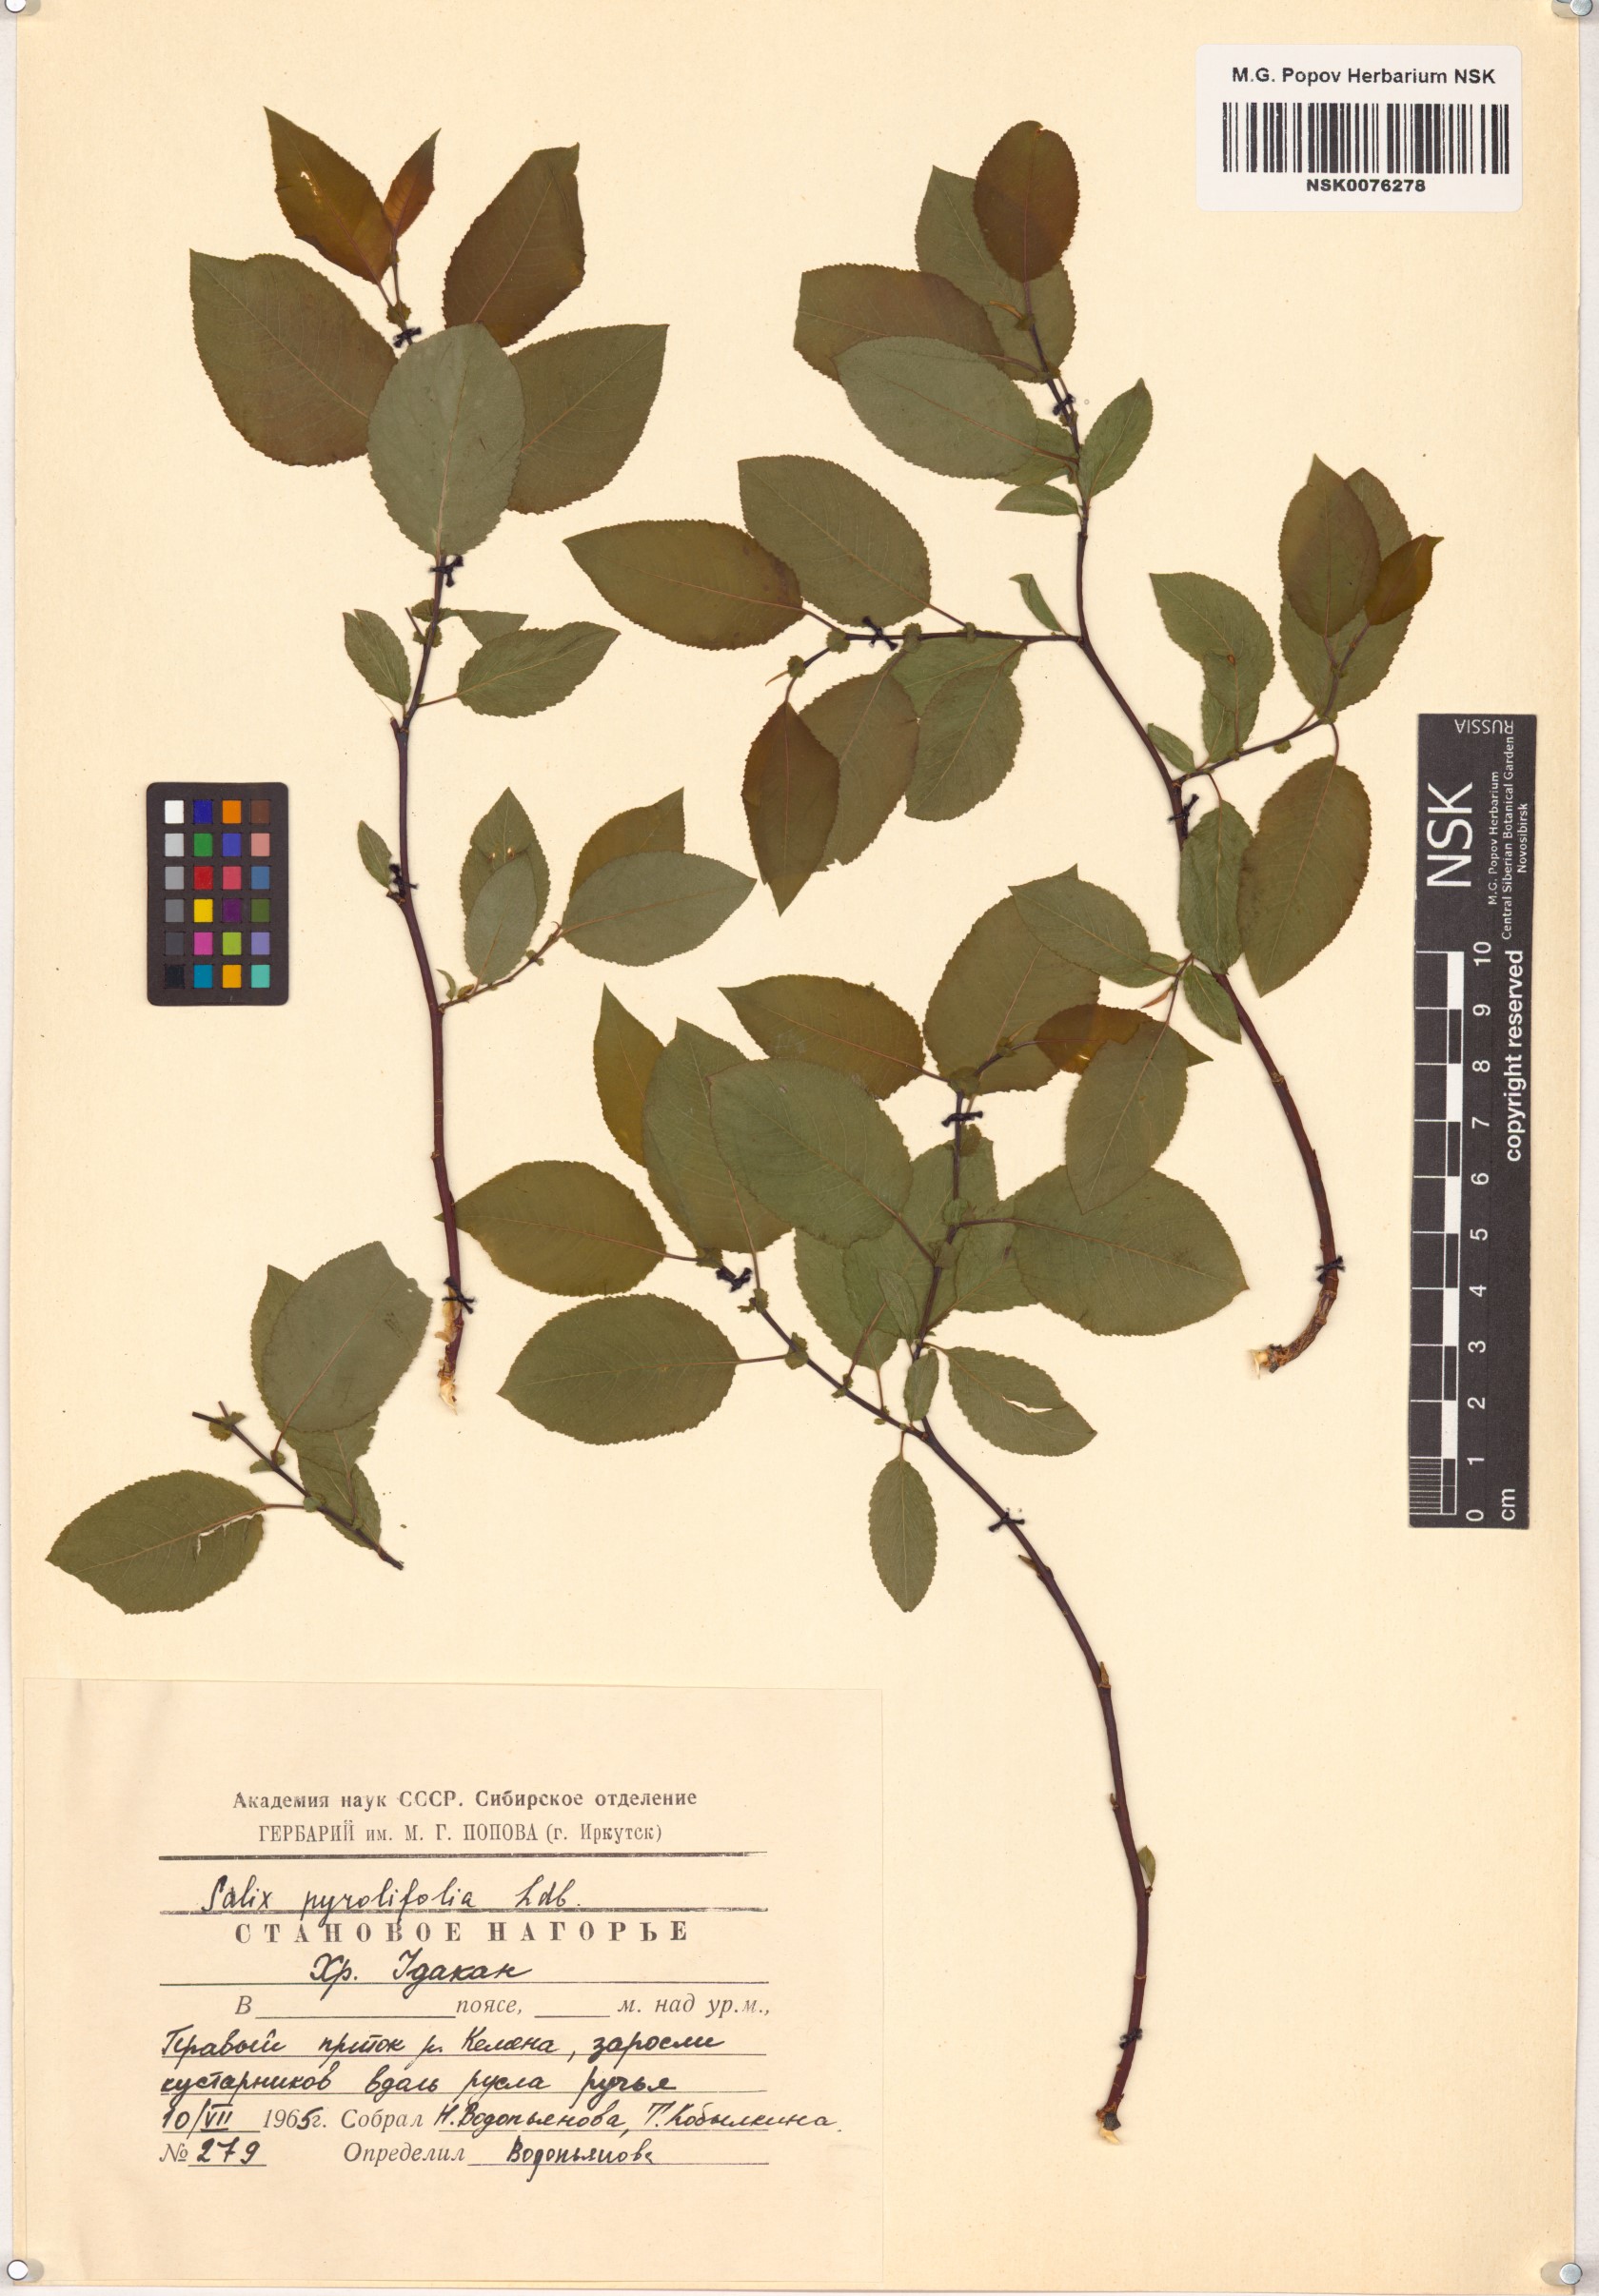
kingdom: Plantae
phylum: Tracheophyta
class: Magnoliopsida
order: Malpighiales
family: Salicaceae
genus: Salix
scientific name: Salix pyrolifolia
